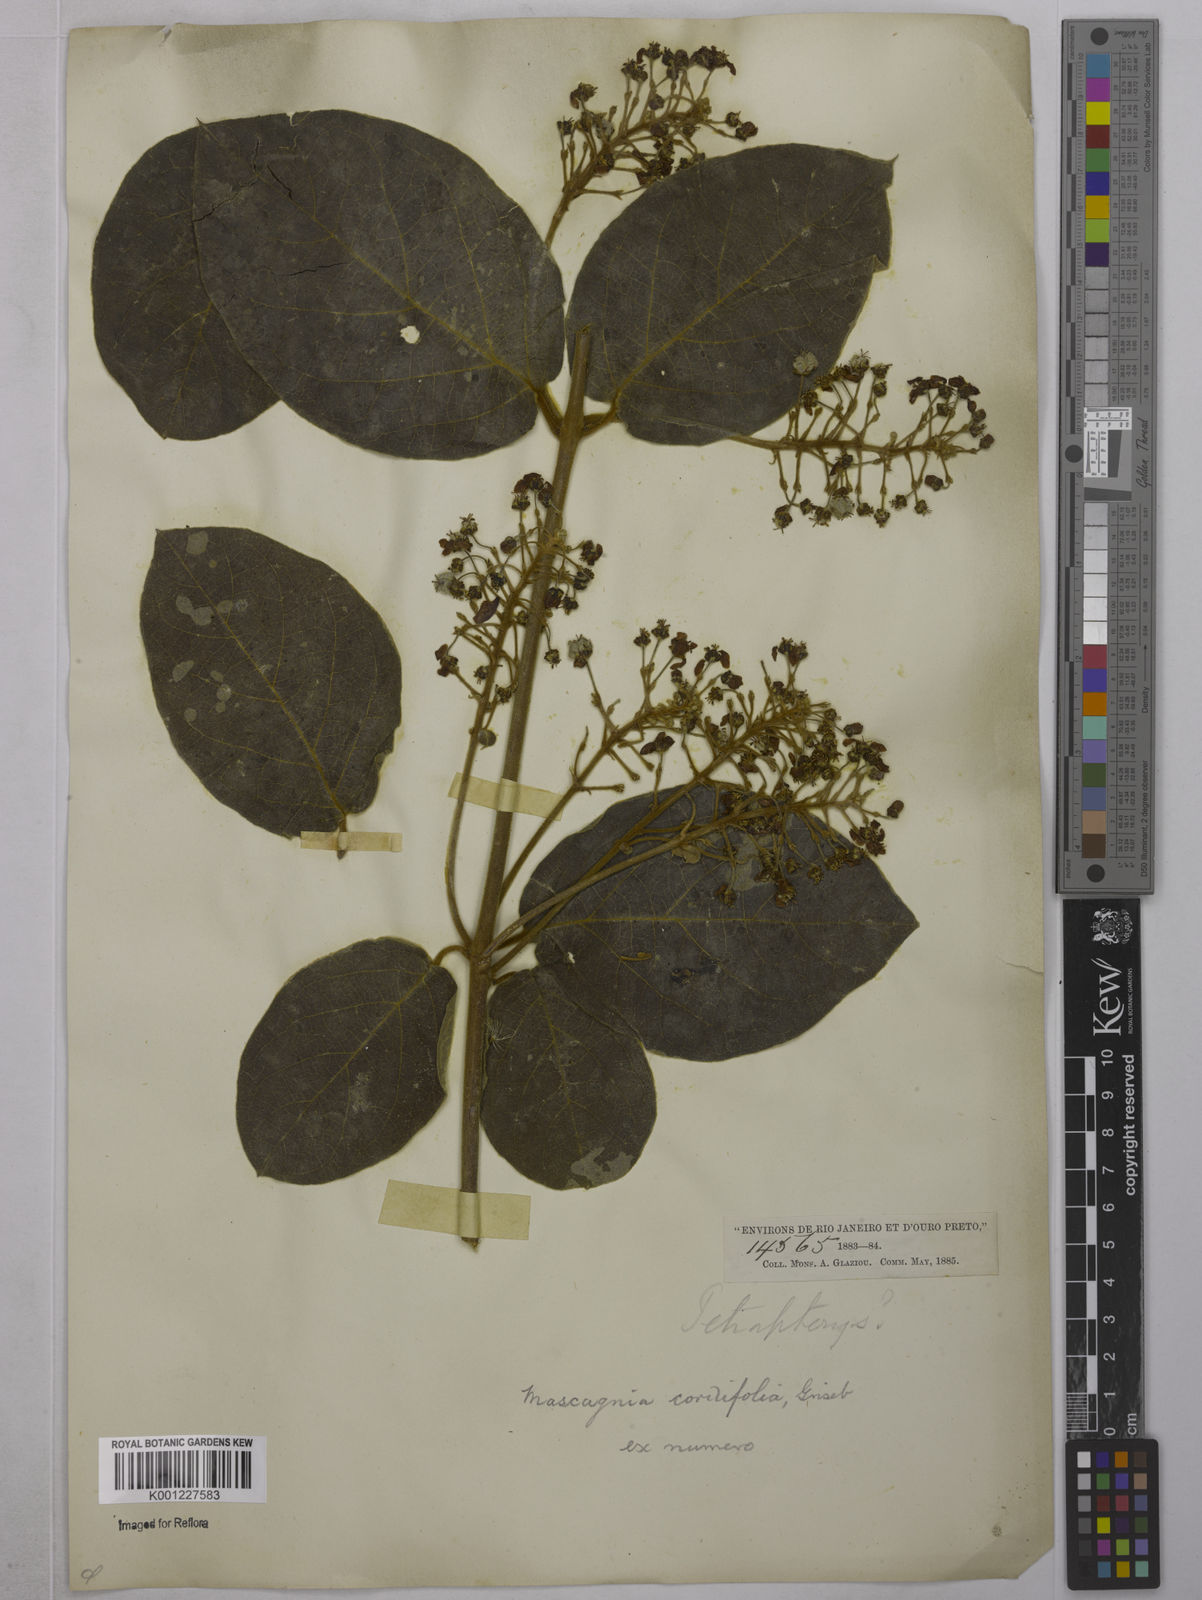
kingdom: Plantae
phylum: Tracheophyta
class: Magnoliopsida
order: Malpighiales
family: Malpighiaceae
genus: Mascagnia
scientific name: Mascagnia cordifolia
